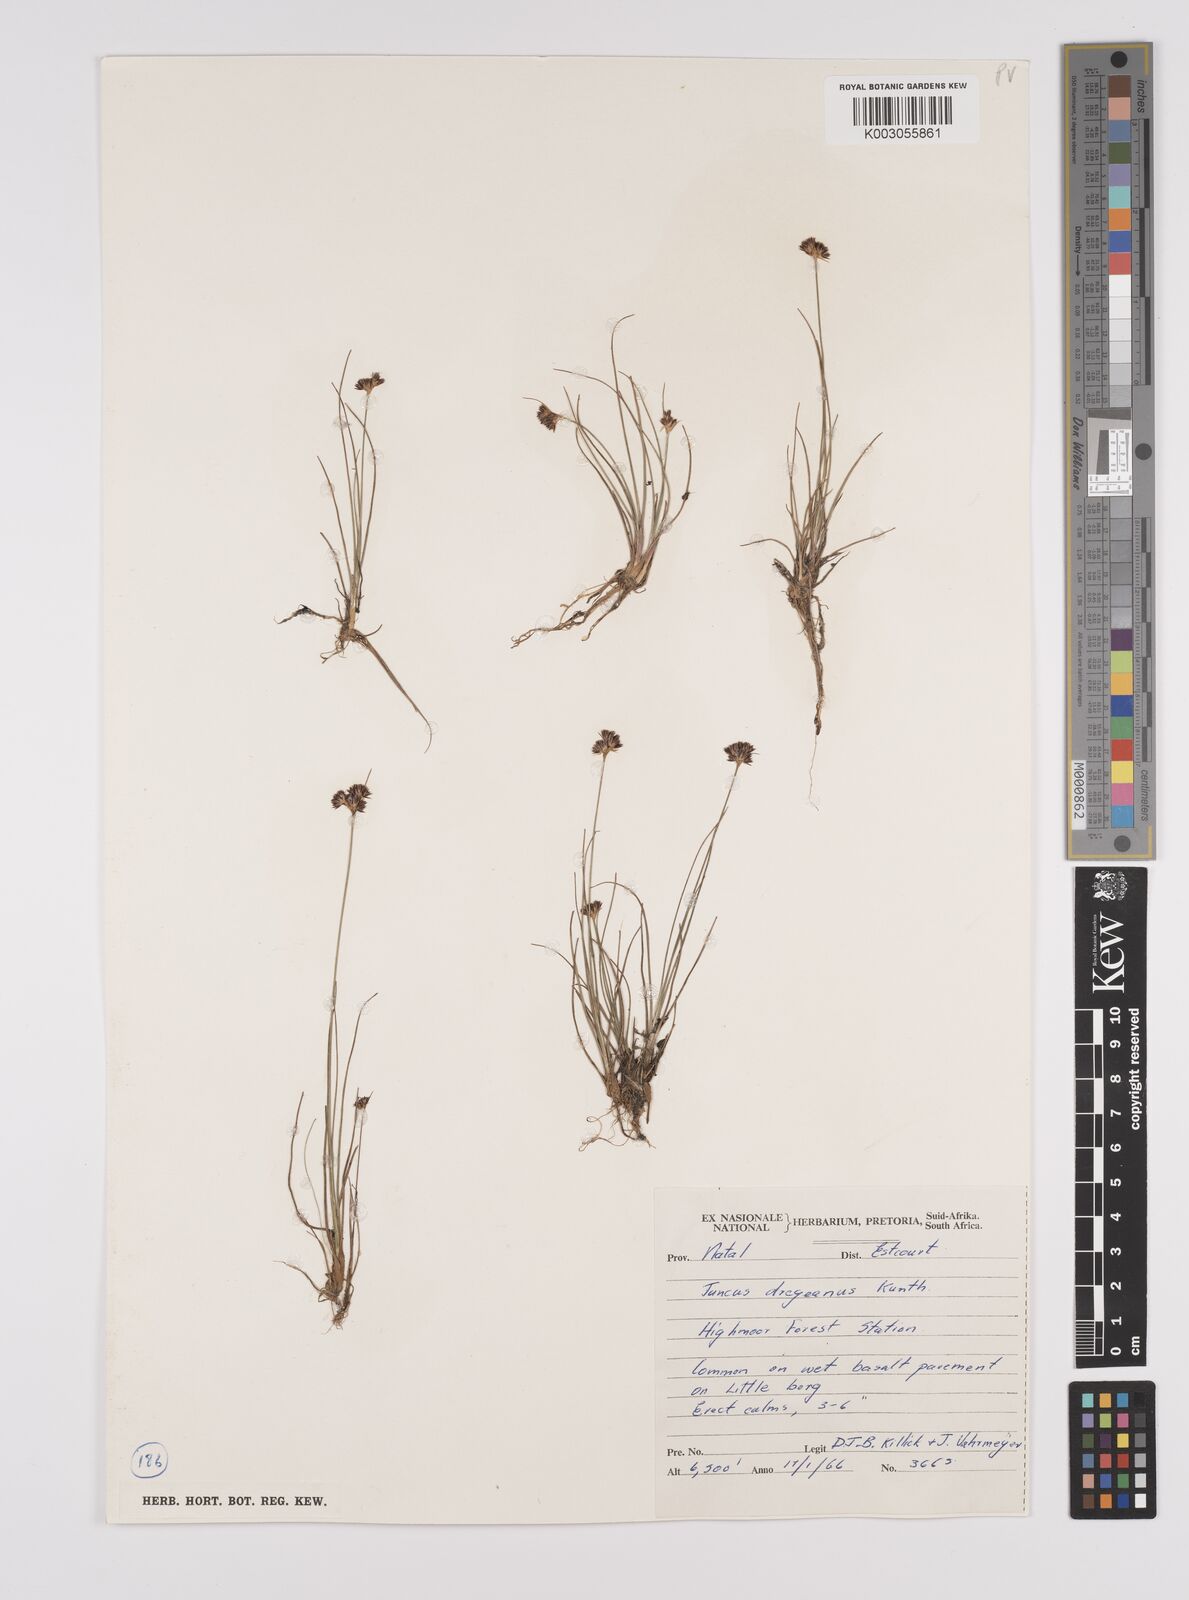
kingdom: Plantae
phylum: Tracheophyta
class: Liliopsida
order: Poales
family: Juncaceae
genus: Juncus
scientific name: Juncus dregeanus
